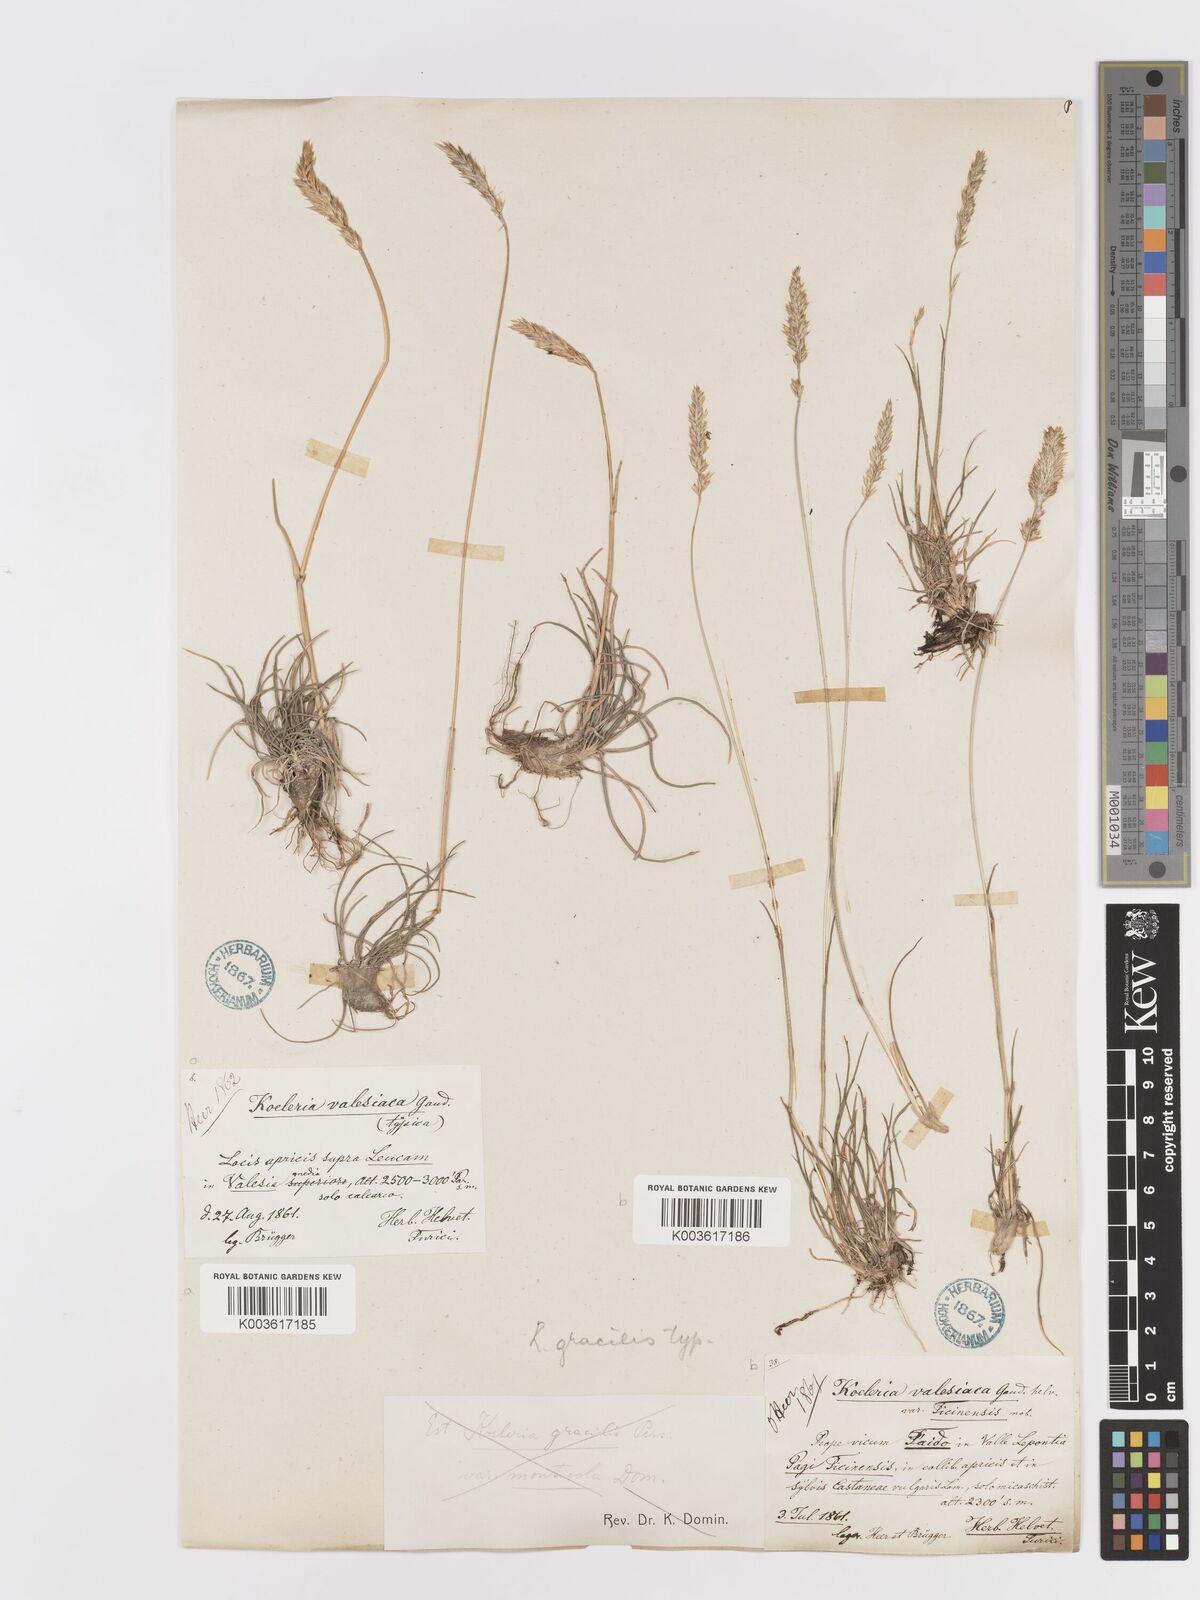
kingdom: Plantae
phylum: Tracheophyta
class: Liliopsida
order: Poales
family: Poaceae
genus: Koeleria
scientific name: Koeleria
